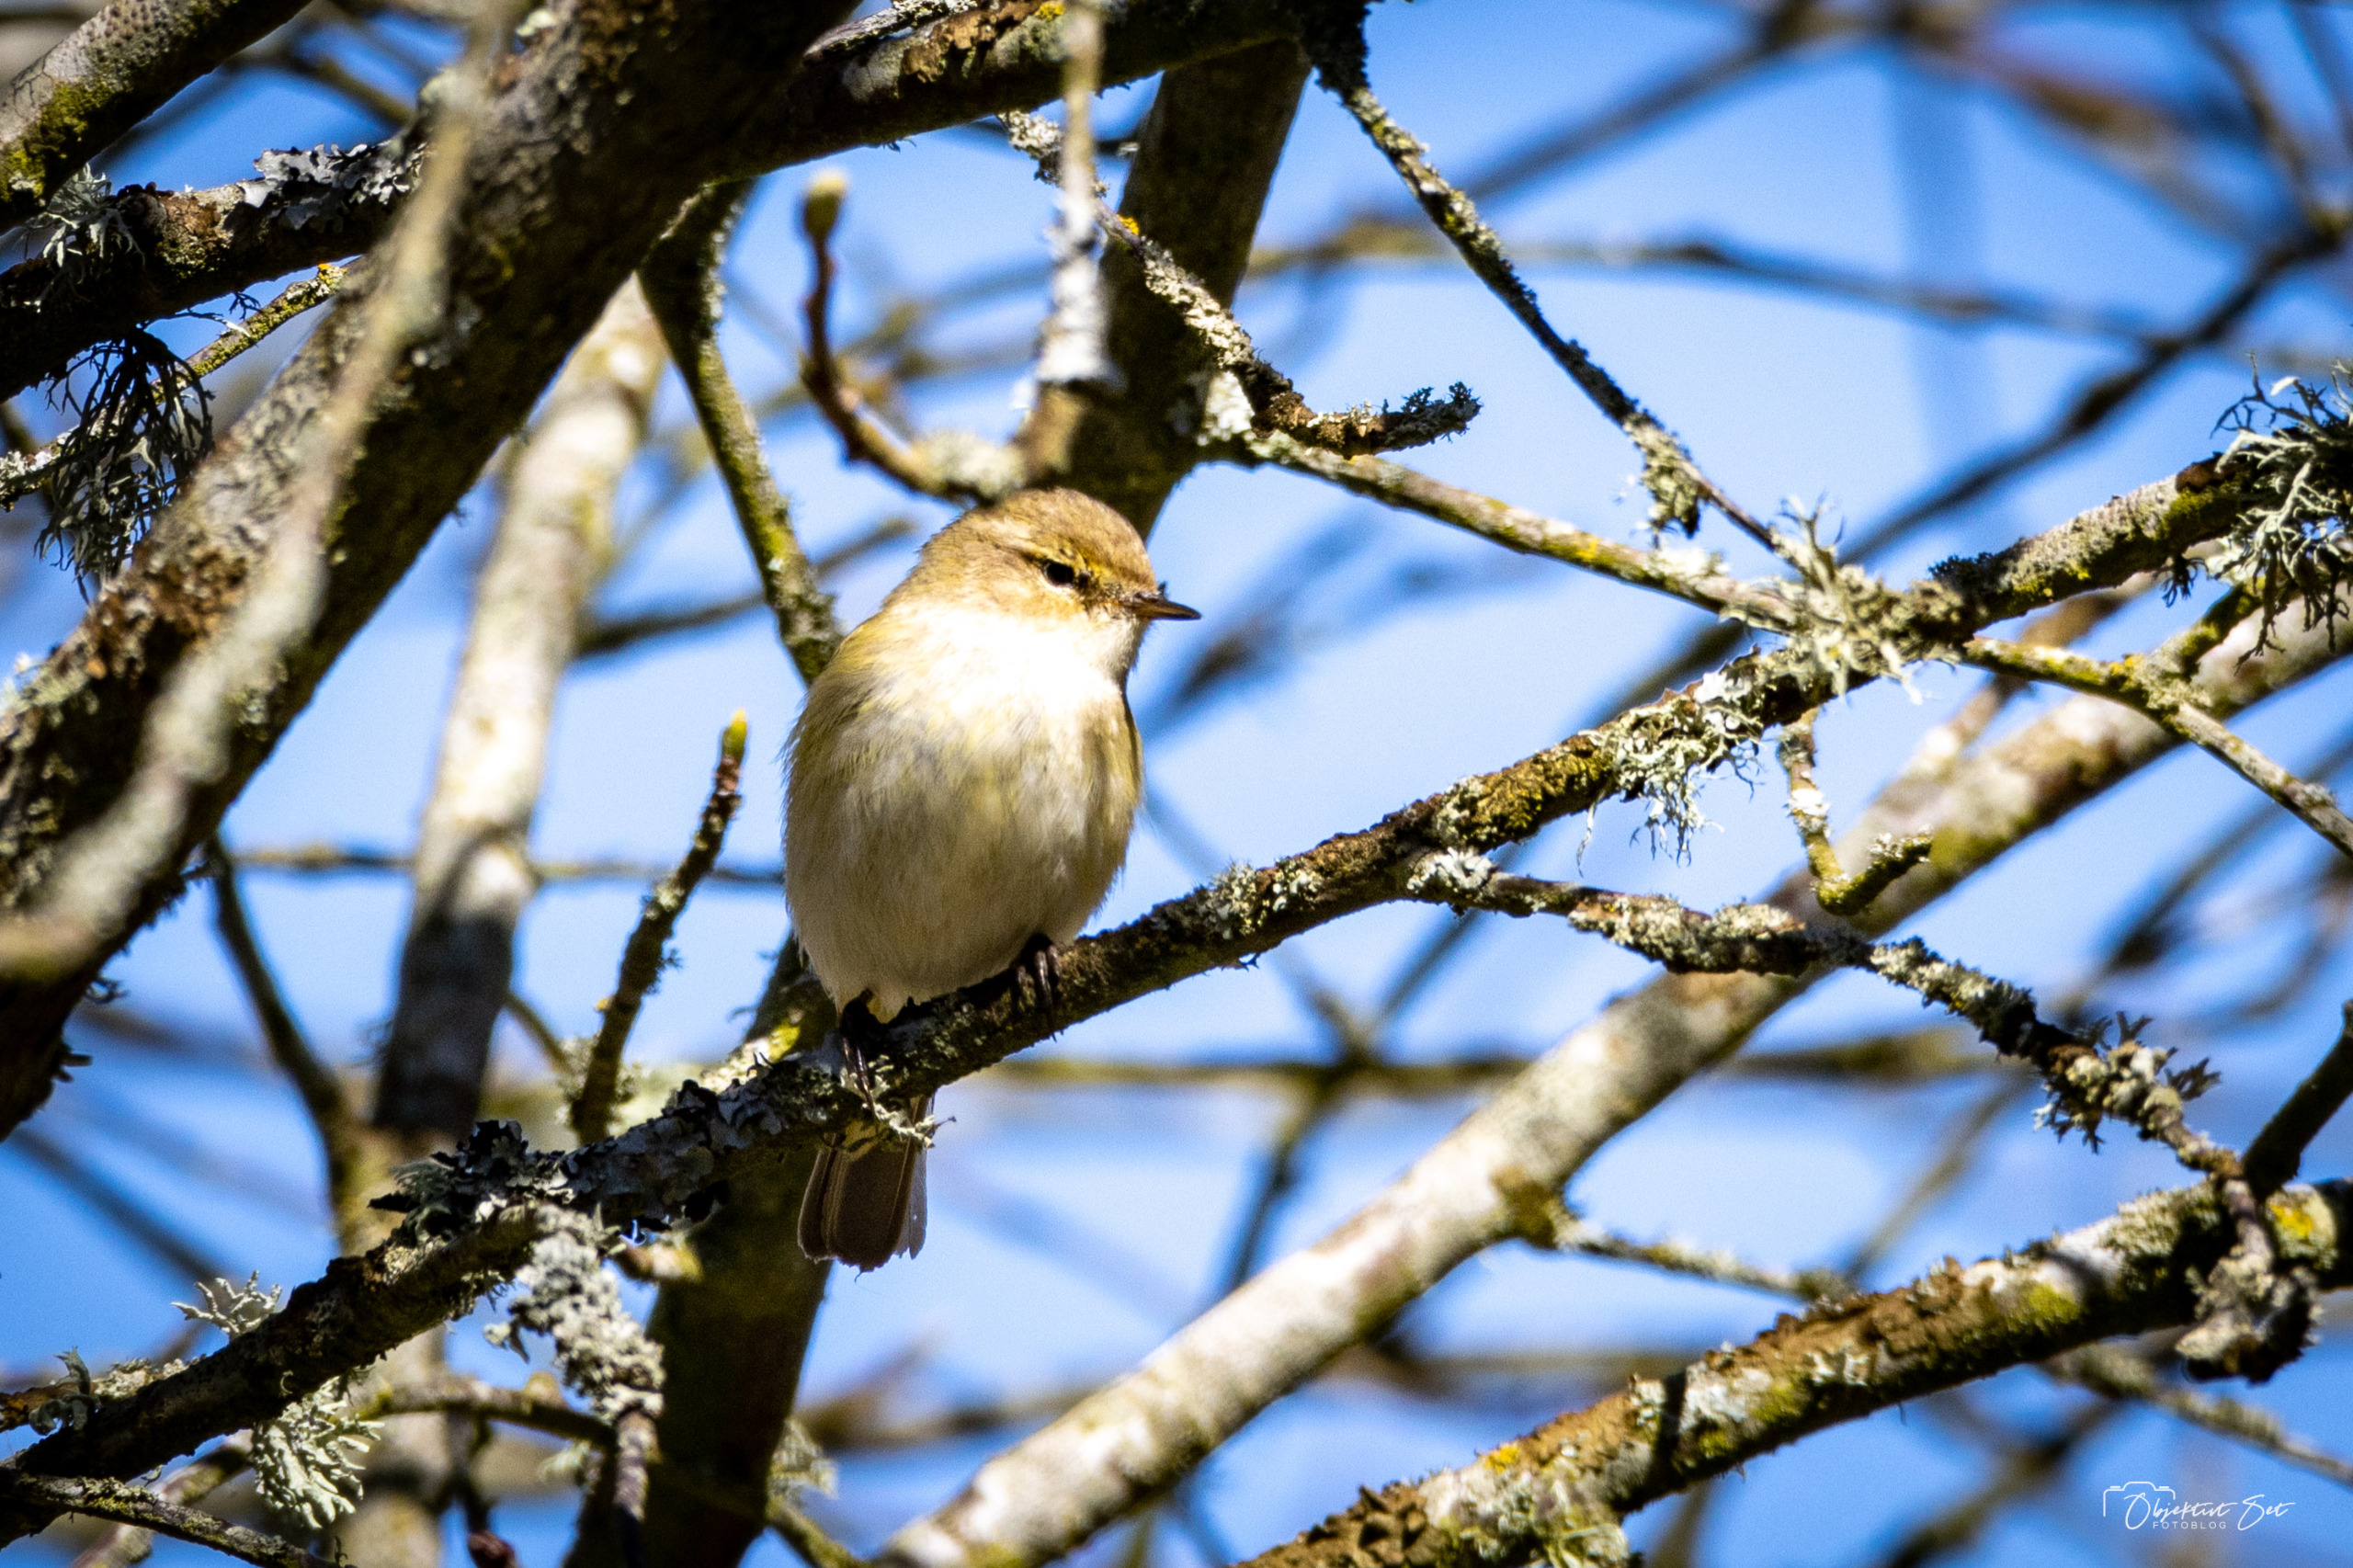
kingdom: Animalia
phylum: Chordata
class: Aves
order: Passeriformes
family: Phylloscopidae
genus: Phylloscopus
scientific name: Phylloscopus collybita
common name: Gransanger
